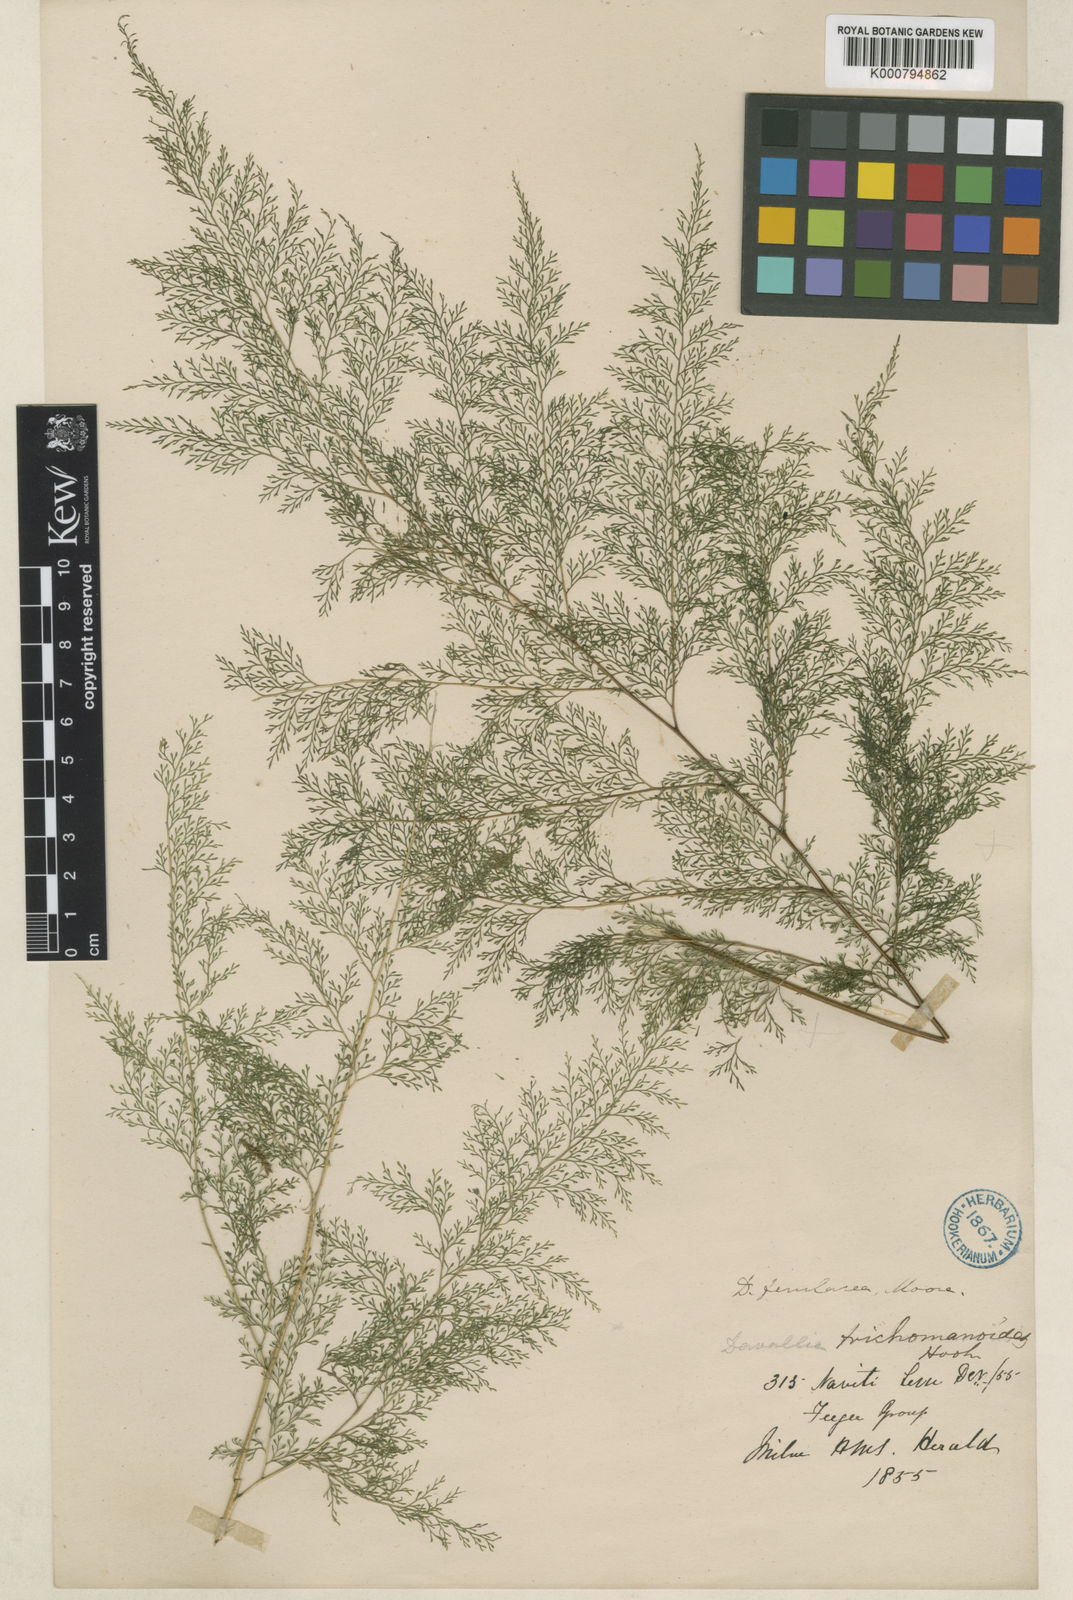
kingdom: Plantae
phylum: Tracheophyta
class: Polypodiopsida
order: Polypodiales
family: Saccolomataceae
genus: Orthiopteris
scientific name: Orthiopteris ferulacea
